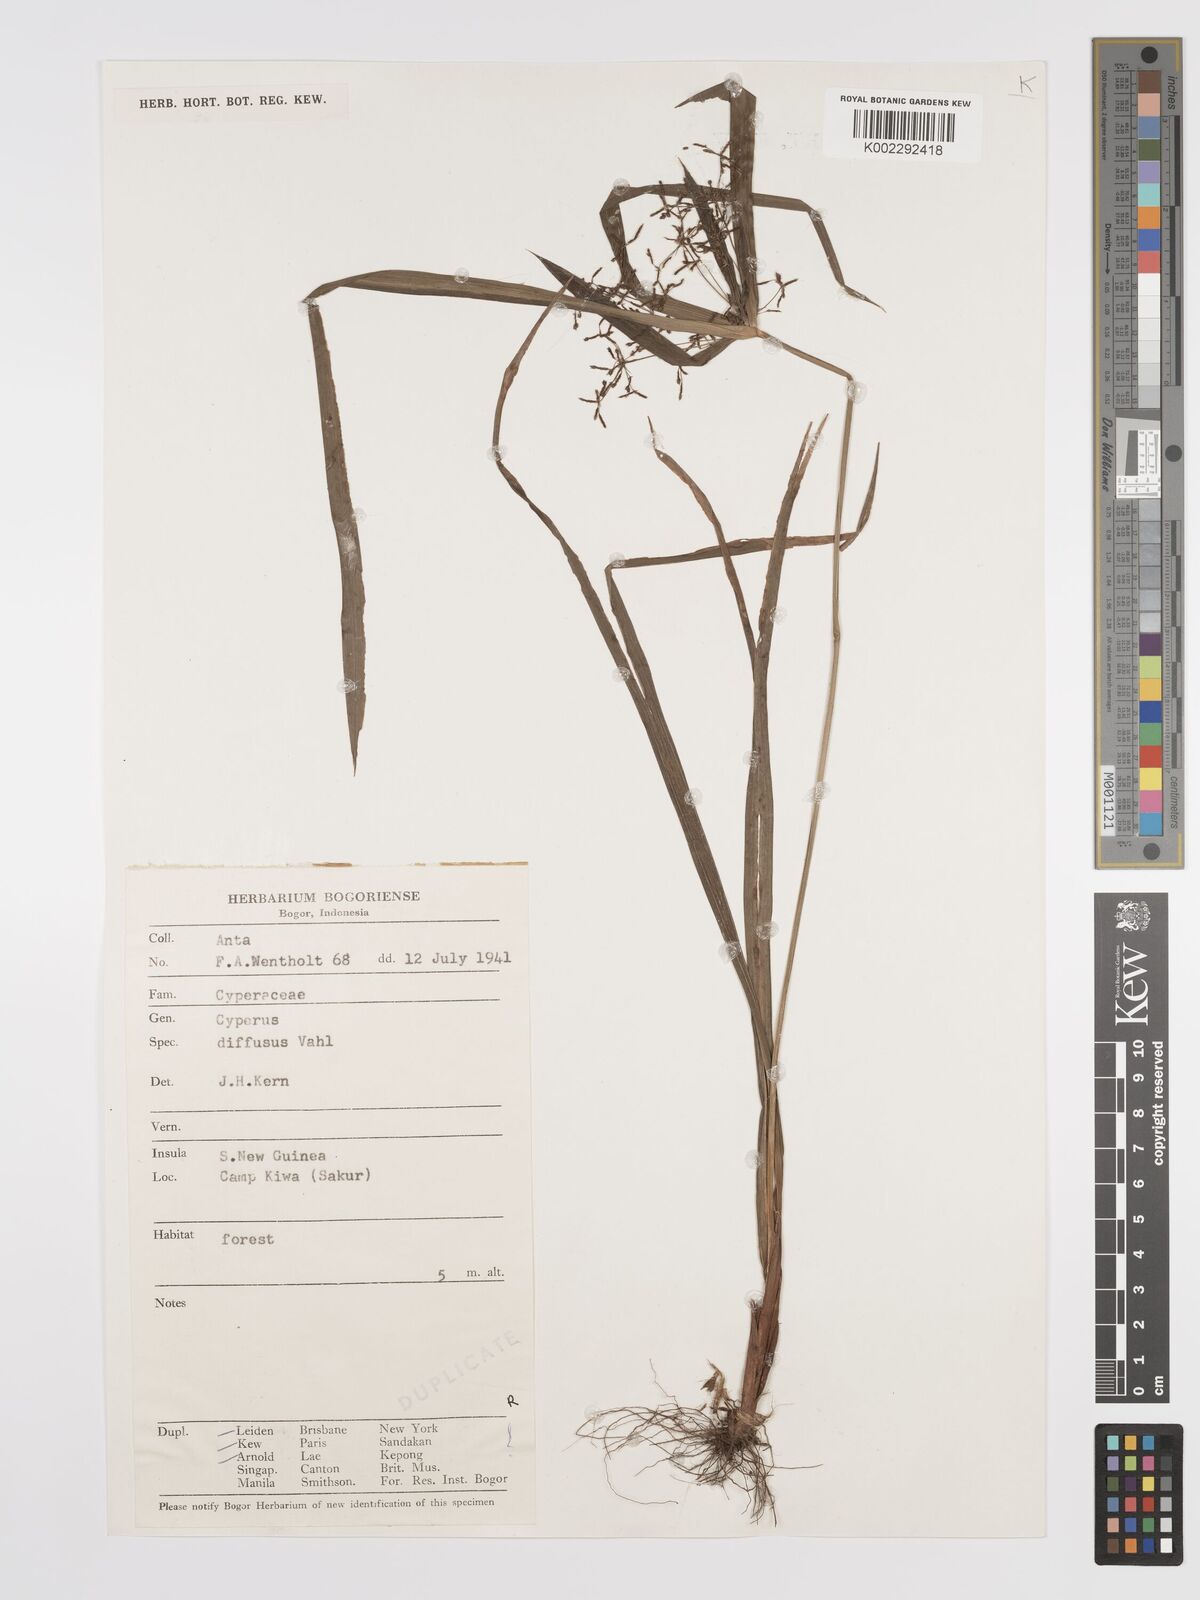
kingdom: Plantae
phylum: Tracheophyta
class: Liliopsida
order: Poales
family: Cyperaceae
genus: Cyperus
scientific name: Cyperus diffusus
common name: Dwarf umbrella grass
